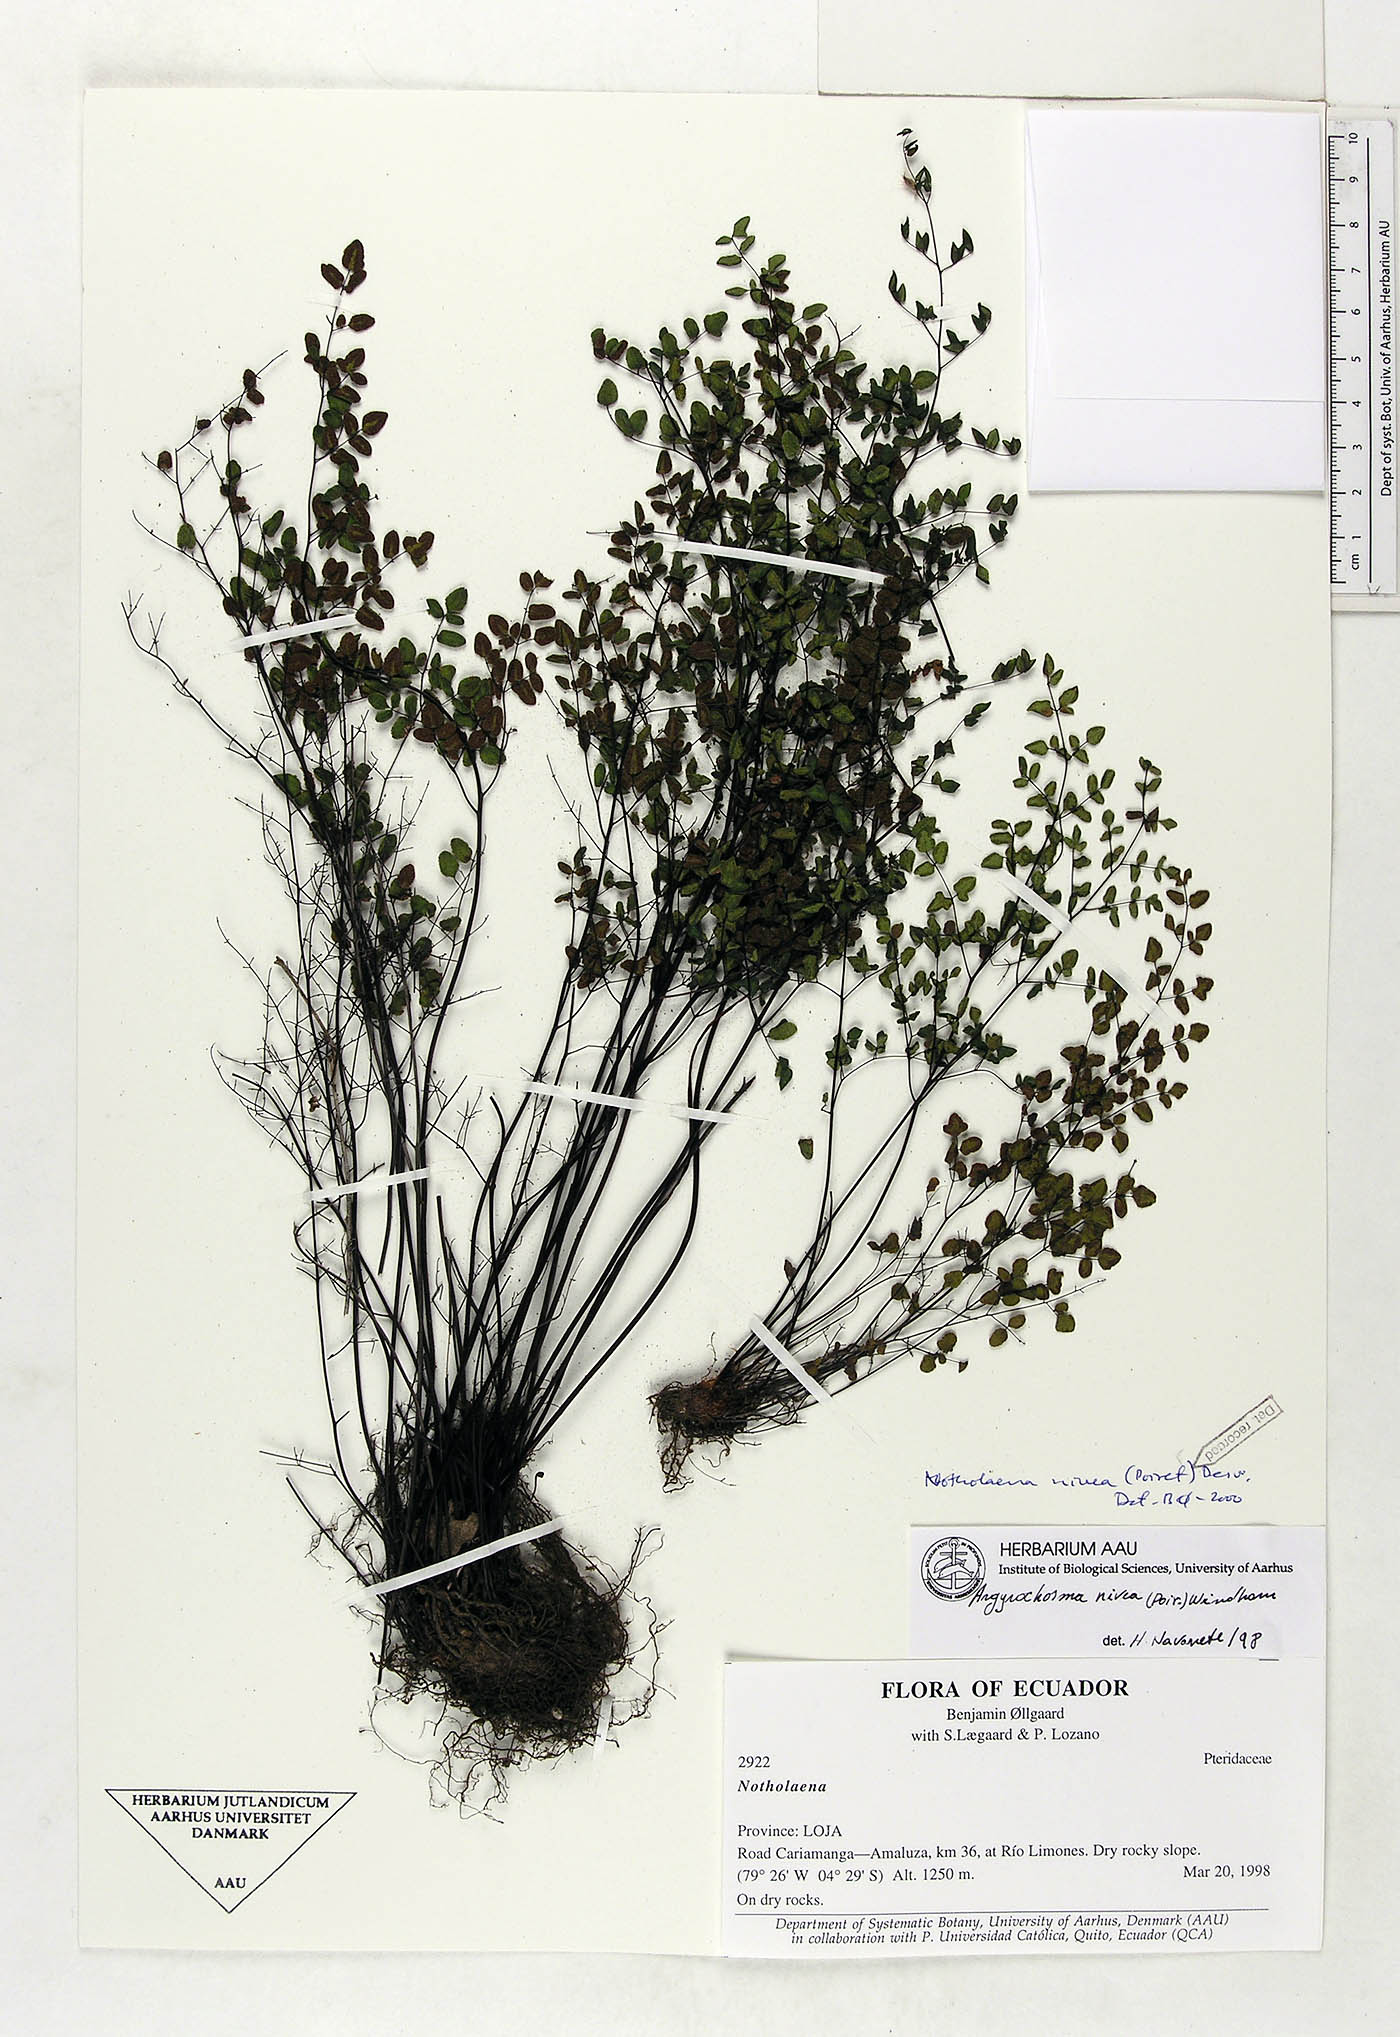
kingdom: Plantae
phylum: Tracheophyta
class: Polypodiopsida
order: Polypodiales
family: Pteridaceae
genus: Argyrochosma
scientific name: Argyrochosma nivea
